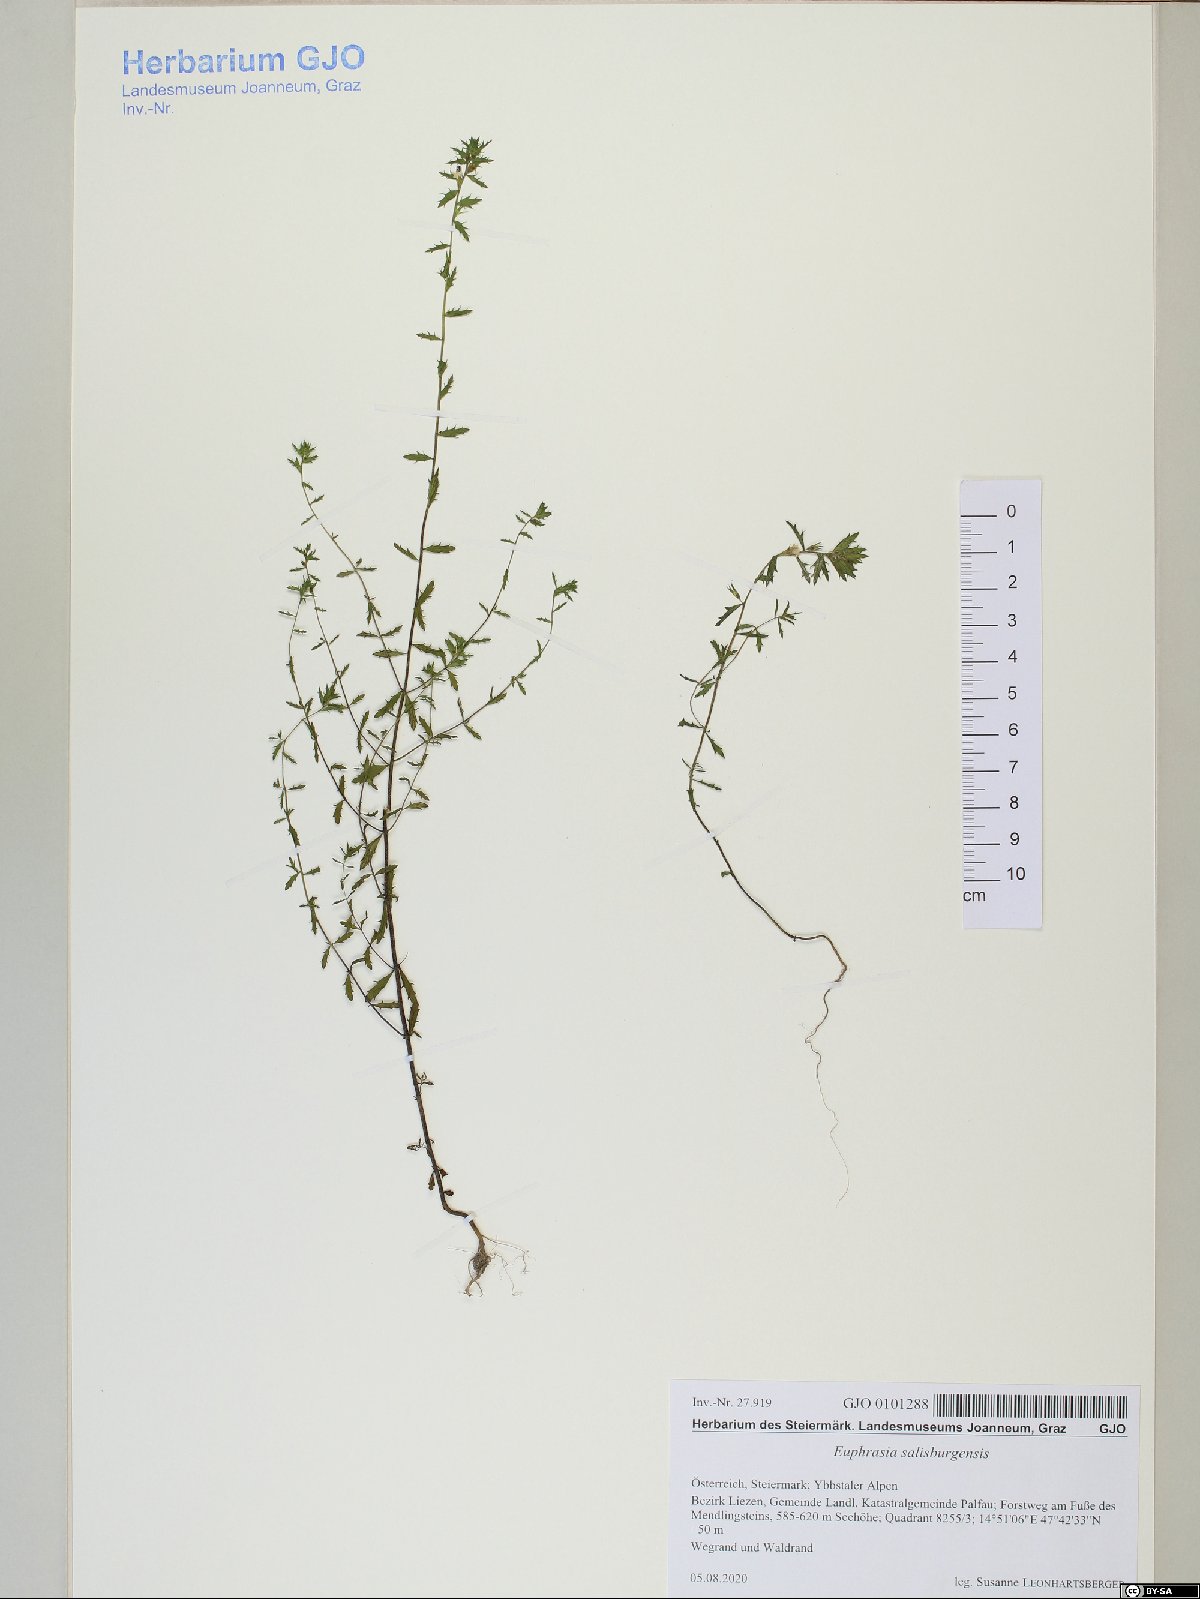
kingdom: Plantae
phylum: Tracheophyta
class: Magnoliopsida
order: Lamiales
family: Orobanchaceae
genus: Euphrasia
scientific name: Euphrasia salisburgensis
